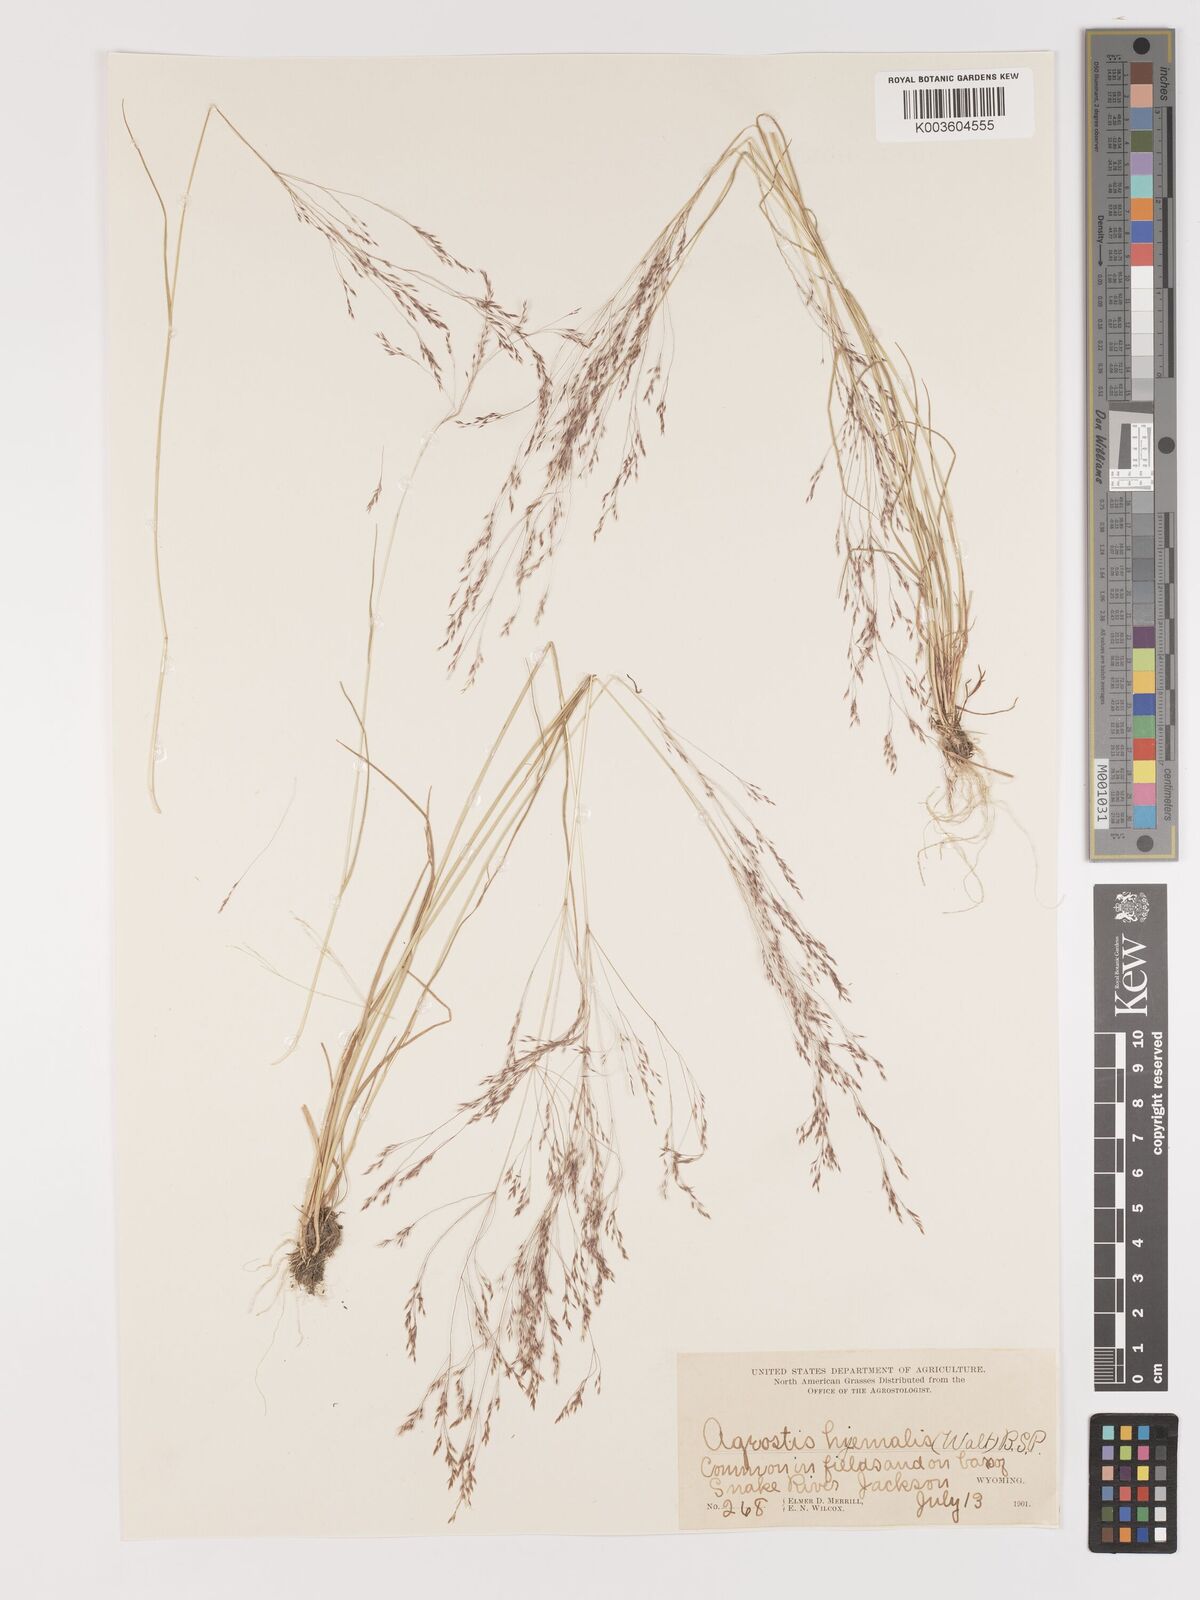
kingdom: Plantae
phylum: Tracheophyta
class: Liliopsida
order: Poales
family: Poaceae
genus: Agrostis
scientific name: Agrostis hyemalis
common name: Small bent
